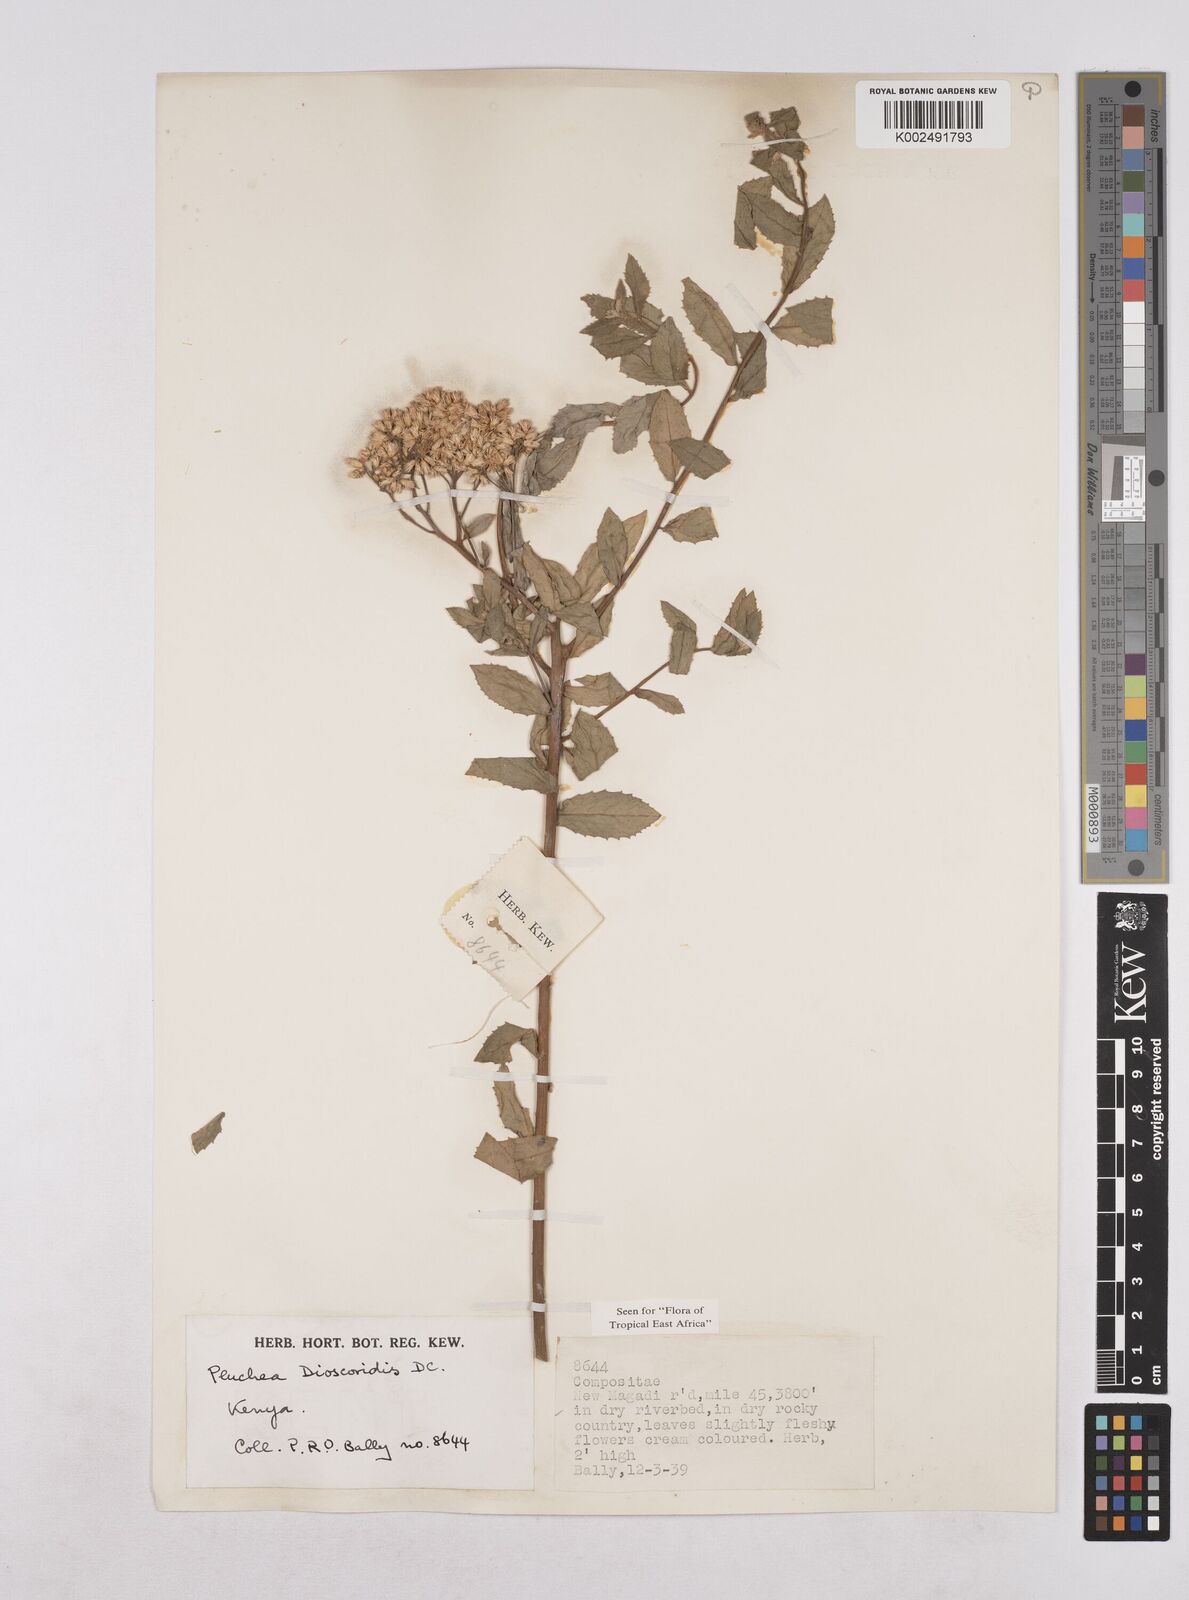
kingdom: Plantae
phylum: Tracheophyta
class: Magnoliopsida
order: Asterales
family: Asteraceae
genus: Pluchea
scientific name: Pluchea dioscoridis
